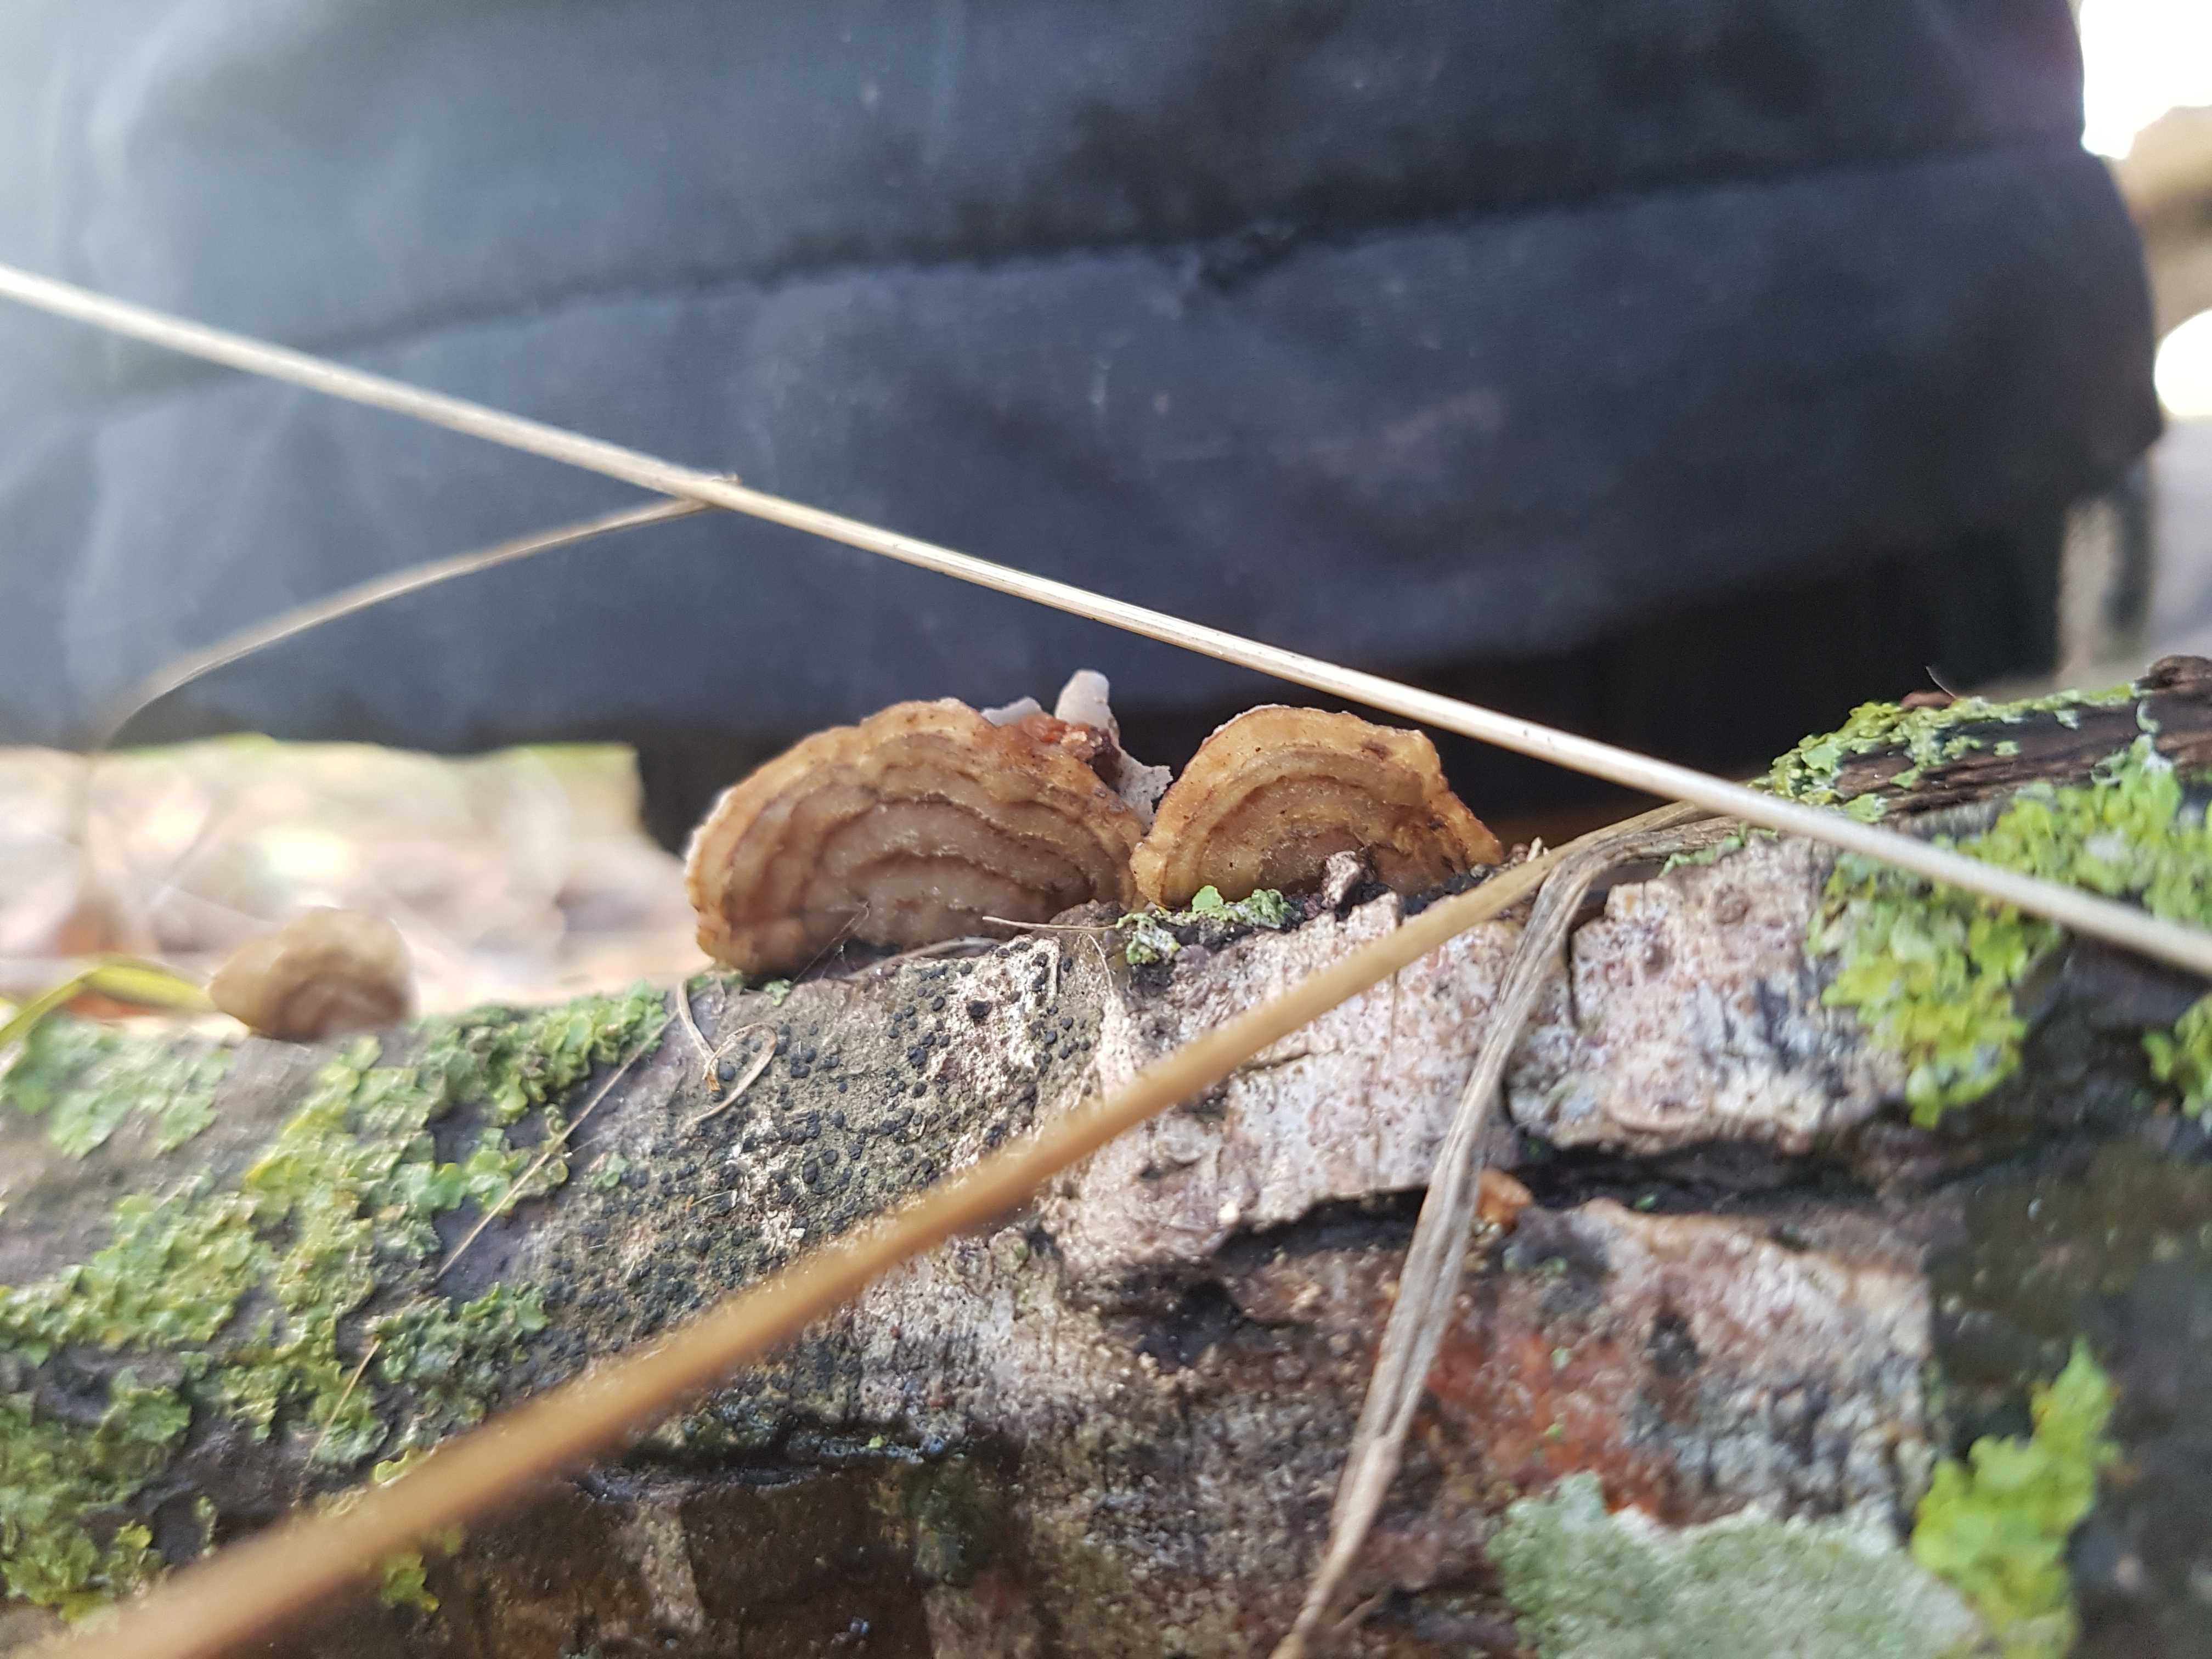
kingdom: Fungi
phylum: Basidiomycota
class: Agaricomycetes
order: Polyporales
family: Polyporaceae
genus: Daedaleopsis
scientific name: Daedaleopsis confragosa
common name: rødmende læderporesvamp
